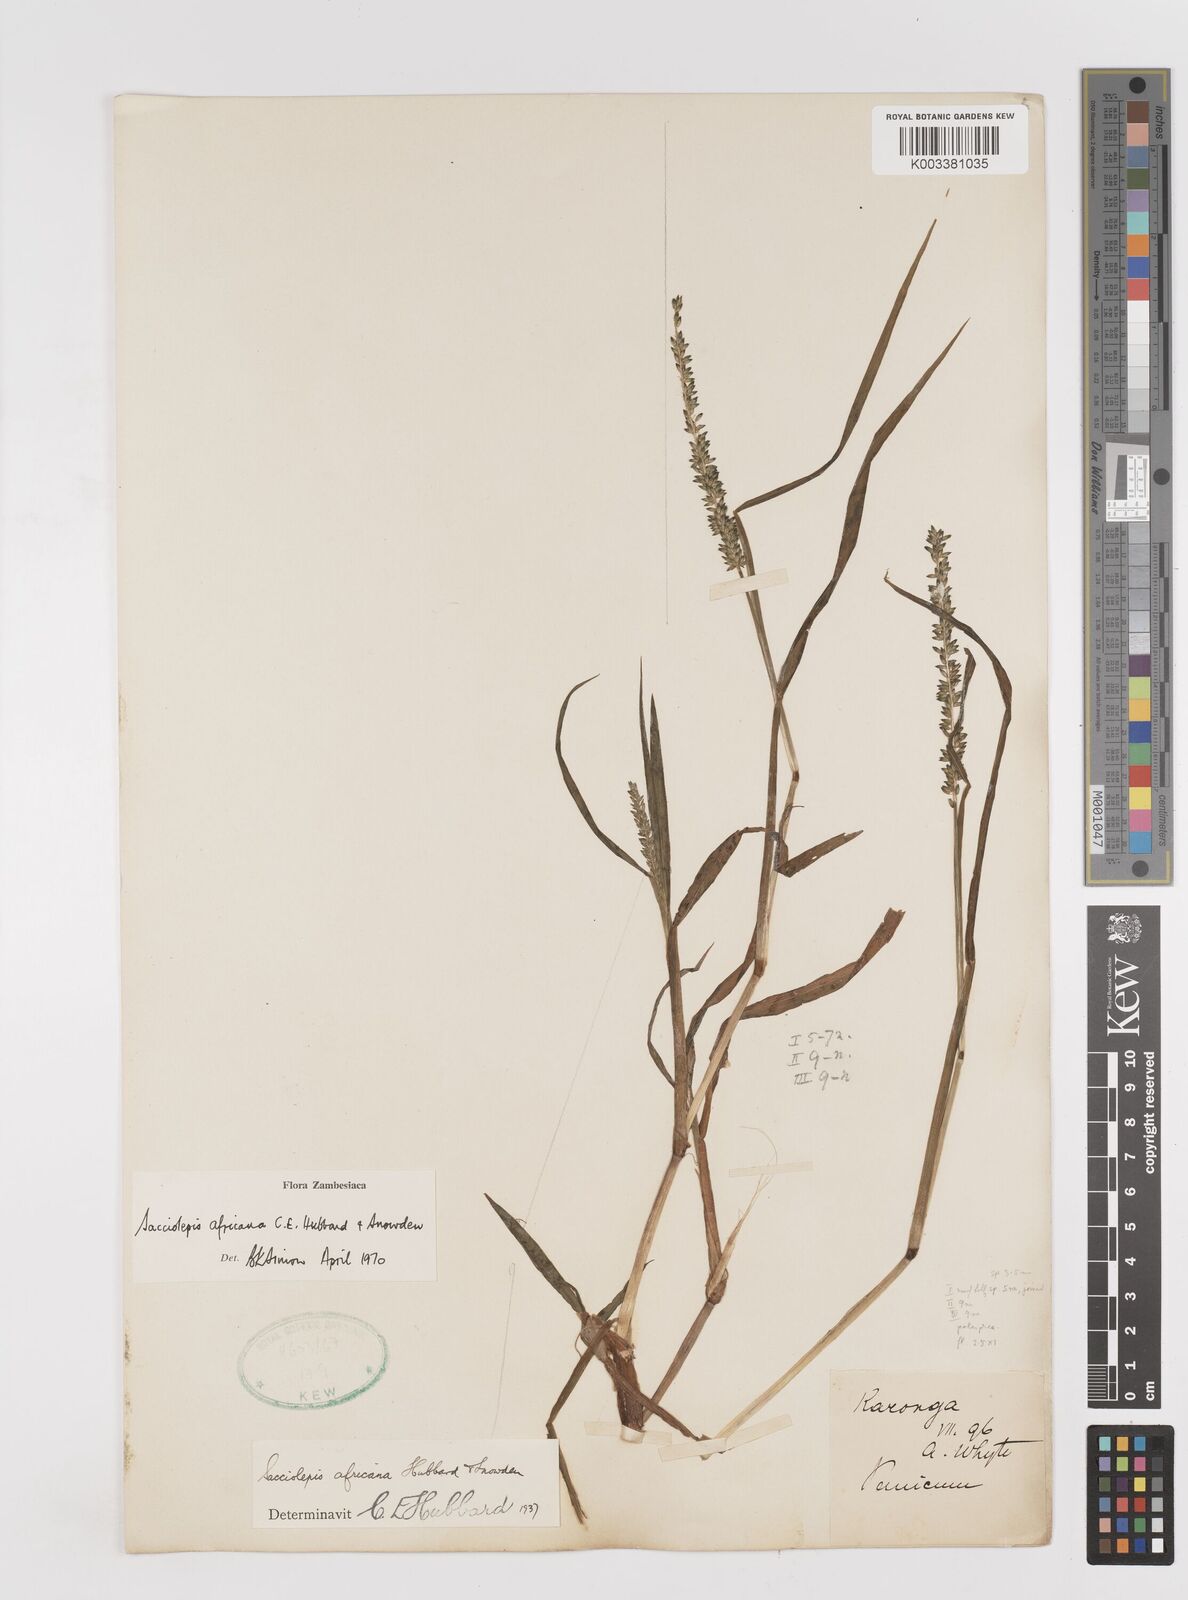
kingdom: Plantae
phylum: Tracheophyta
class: Liliopsida
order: Poales
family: Poaceae
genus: Sacciolepis
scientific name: Sacciolepis africana
